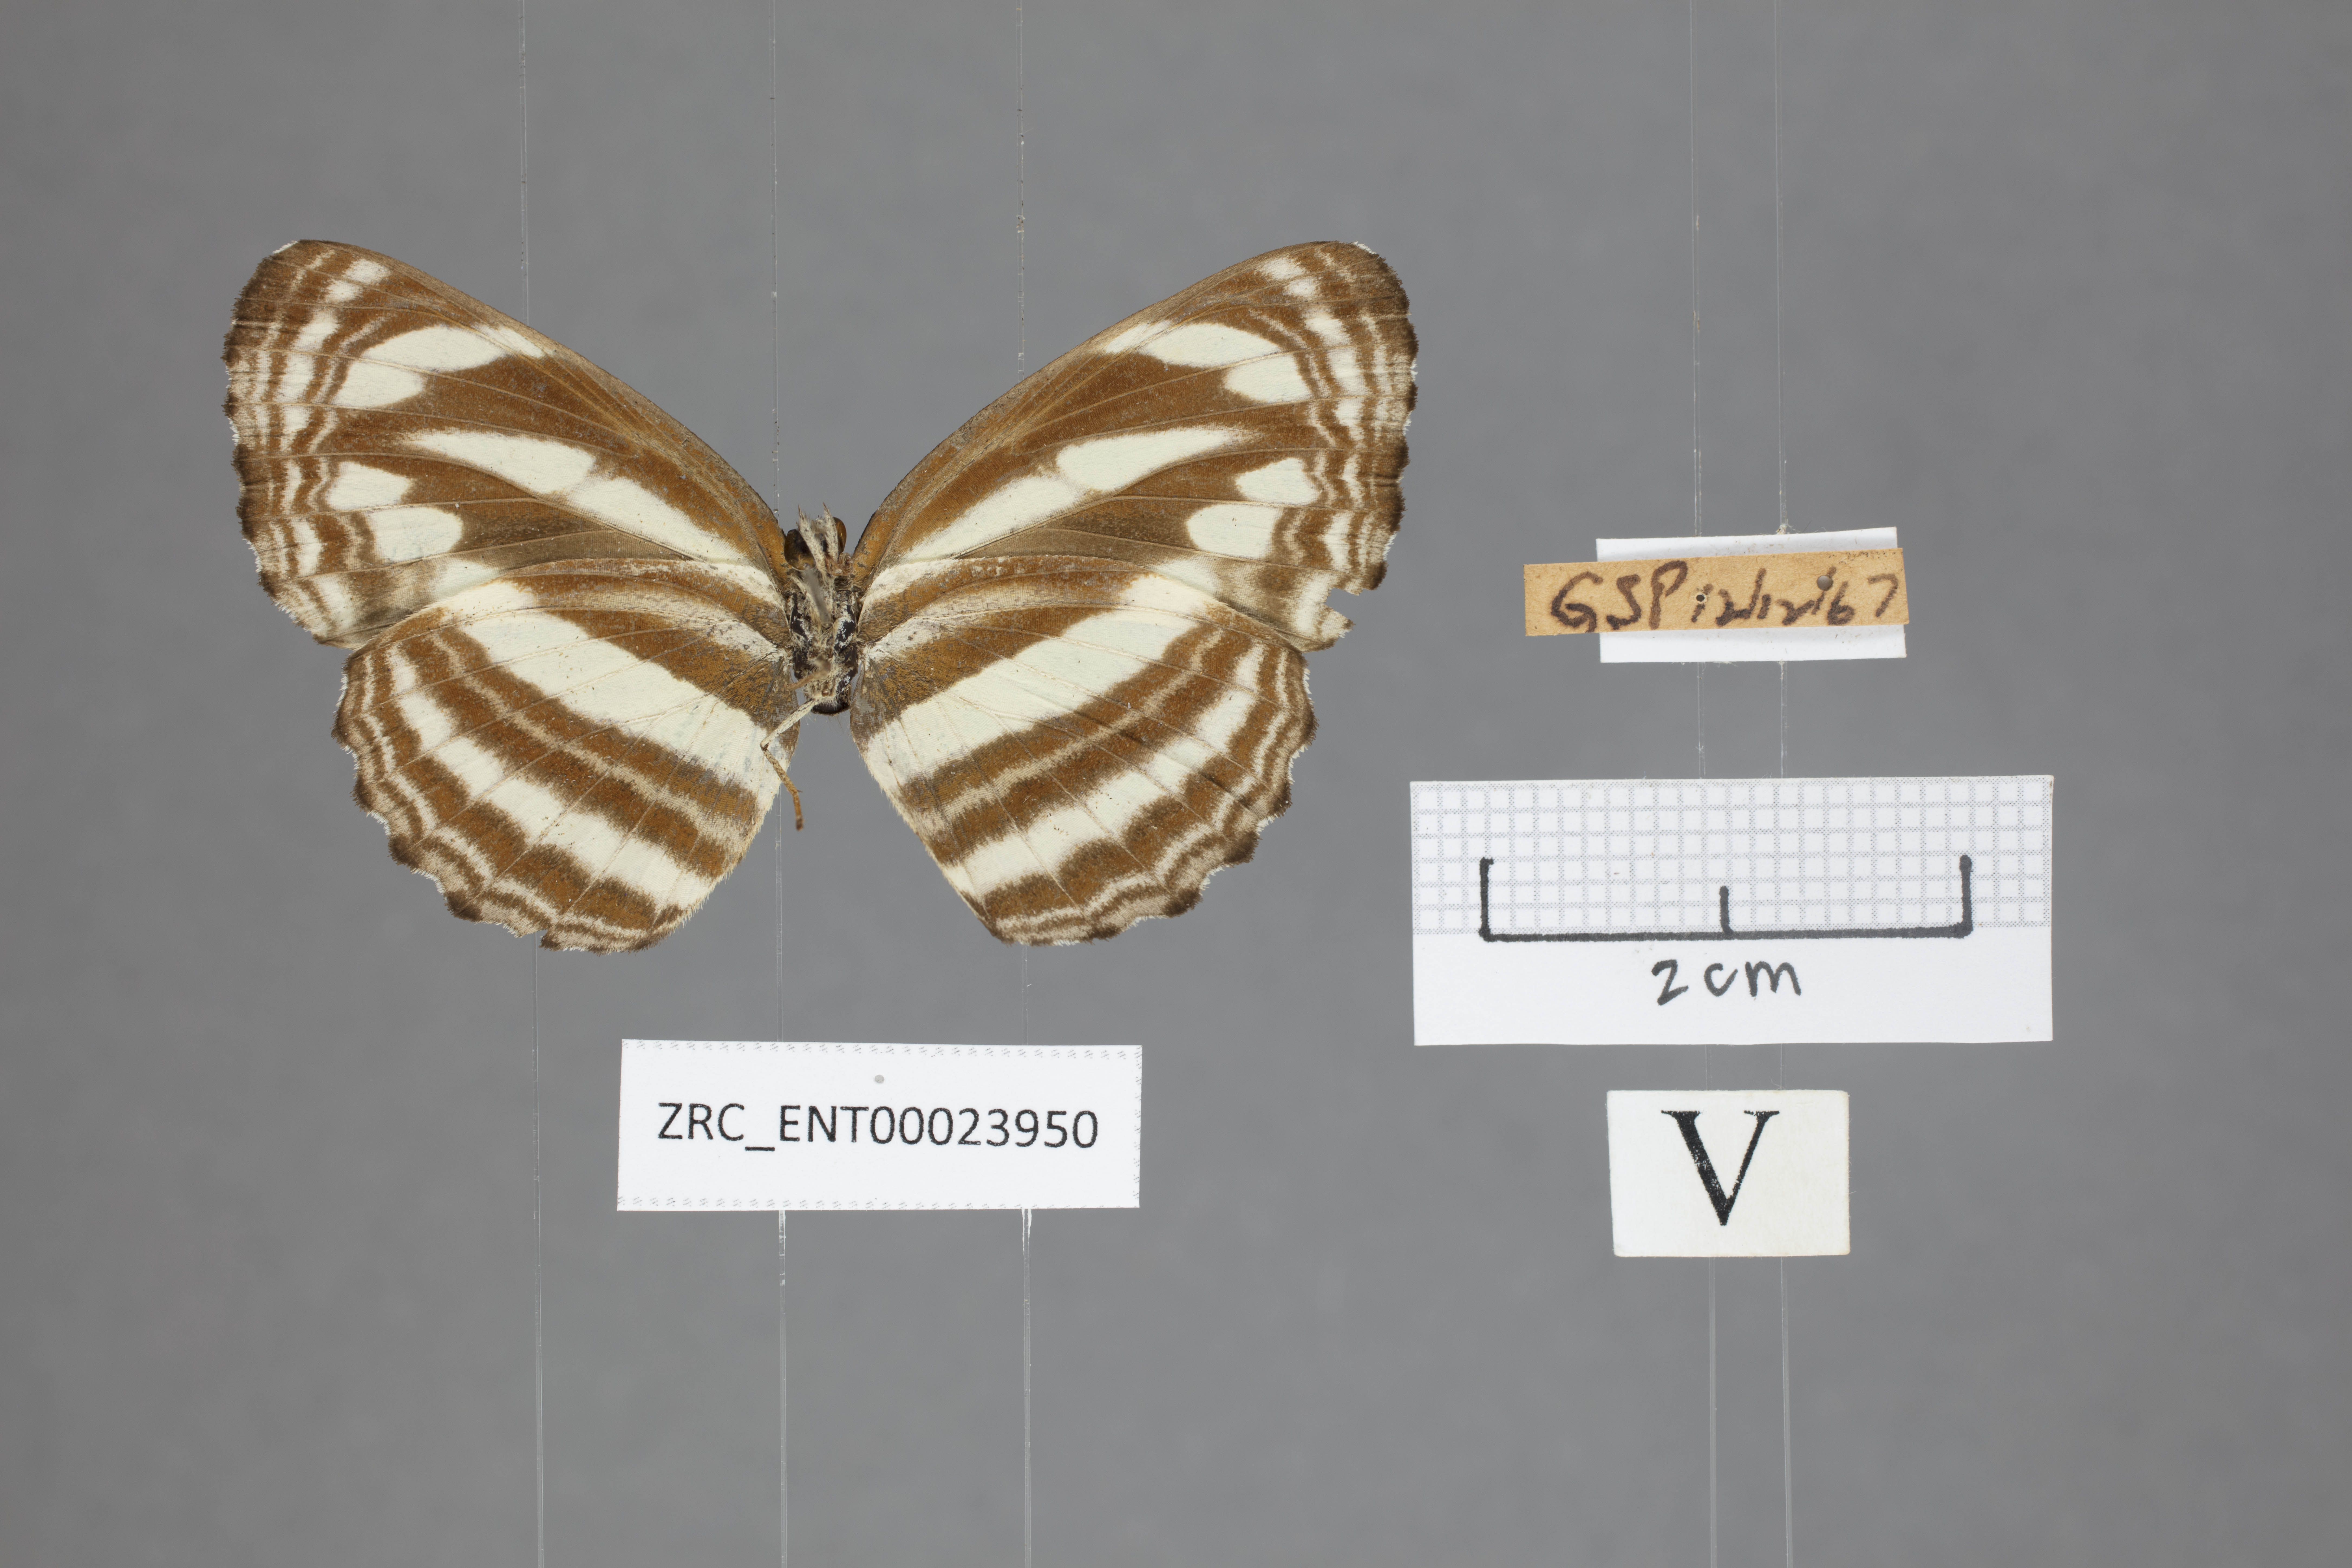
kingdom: Animalia
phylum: Arthropoda
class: Insecta
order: Lepidoptera
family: Nymphalidae
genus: Neptis
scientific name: Neptis clinia
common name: Southern sullied sailer
